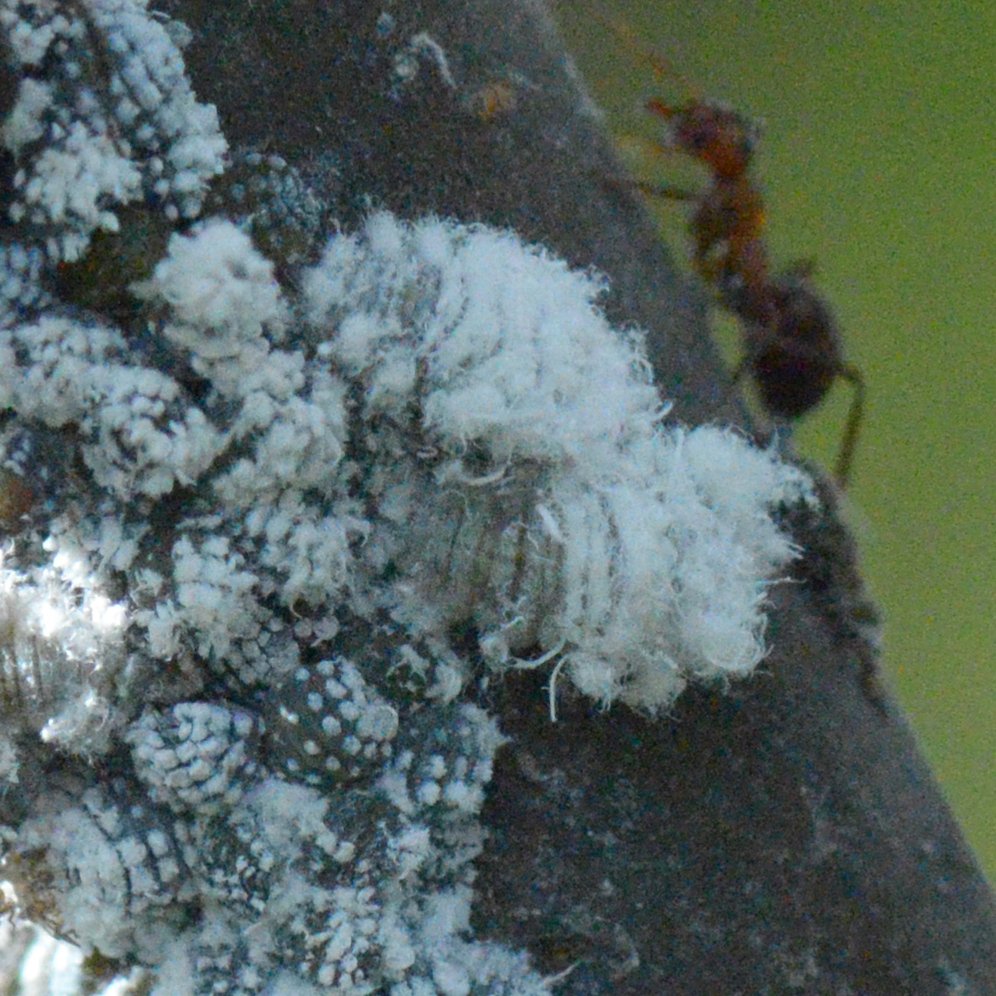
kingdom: Animalia
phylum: Arthropoda
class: Insecta
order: Lepidoptera
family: Lycaenidae
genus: Feniseca
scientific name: Feniseca tarquinius
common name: Harvester
